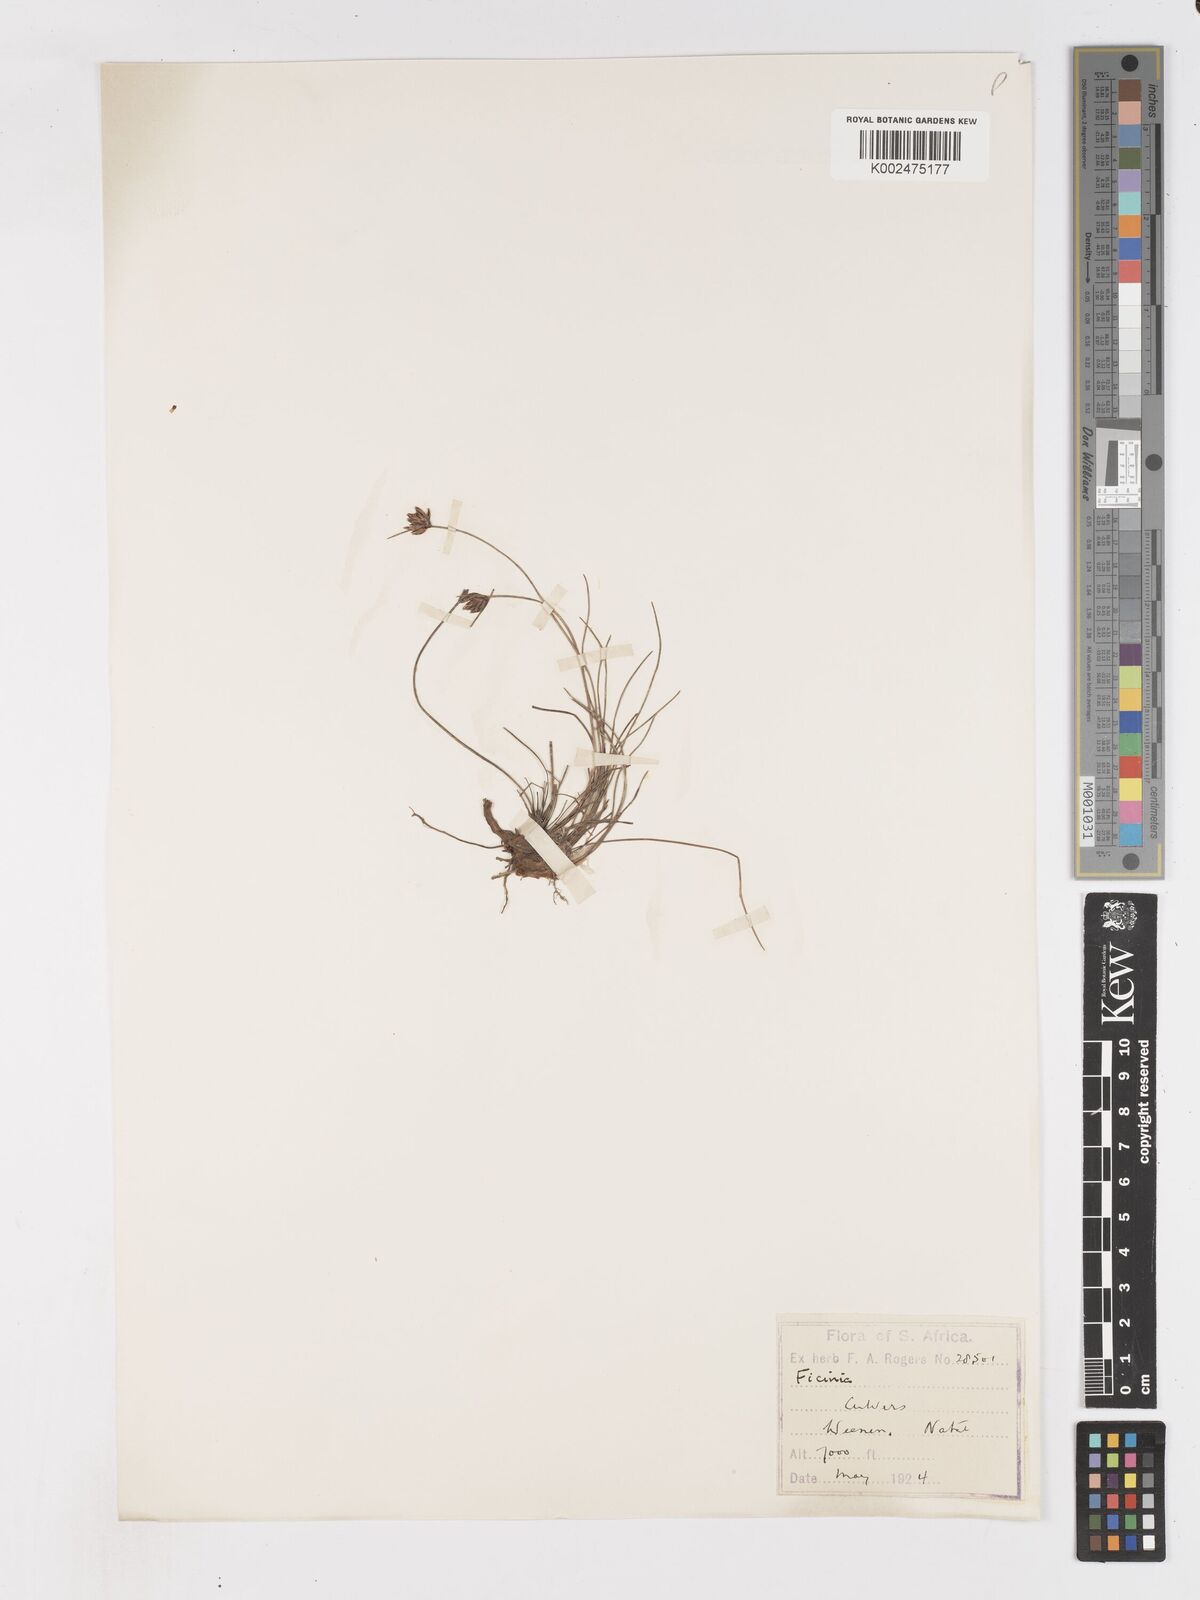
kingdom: Plantae
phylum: Tracheophyta
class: Liliopsida
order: Poales
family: Cyperaceae
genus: Ficinia
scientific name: Ficinia stolonifera
